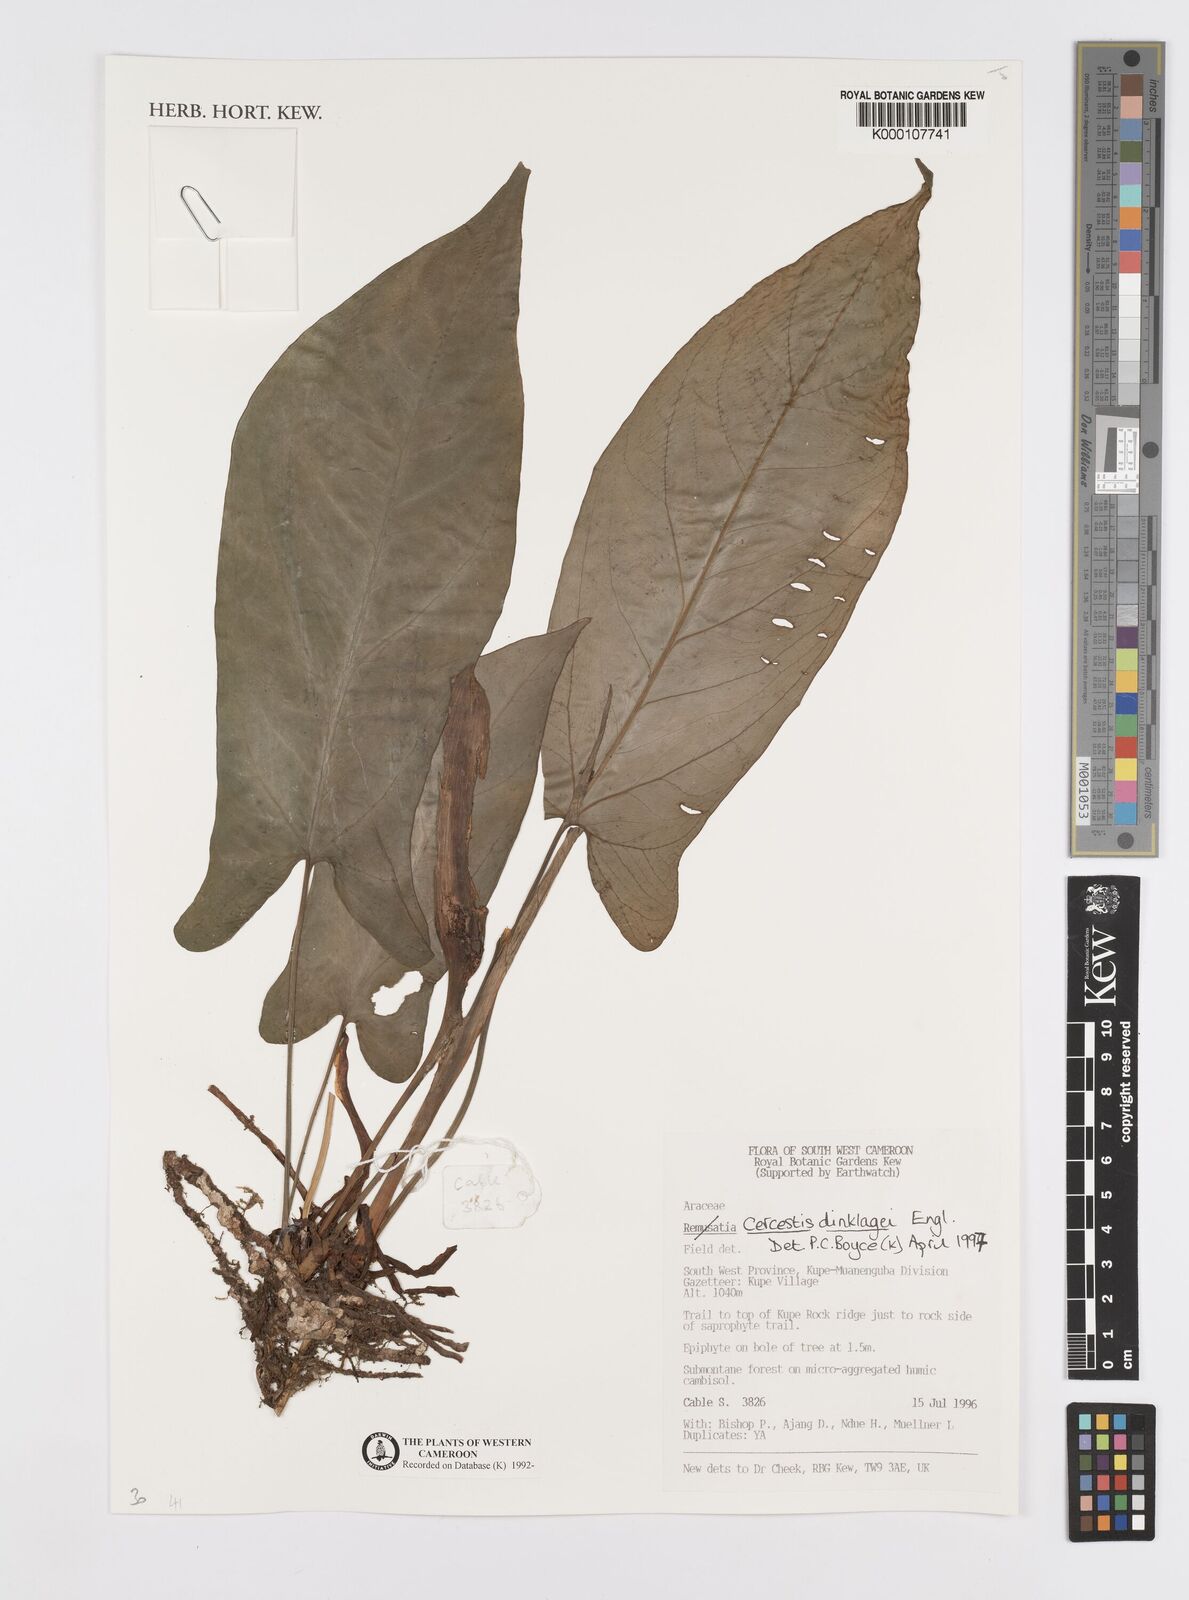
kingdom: Plantae
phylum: Tracheophyta
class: Liliopsida
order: Alismatales
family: Araceae
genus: Cercestis
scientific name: Cercestis dinklagei
